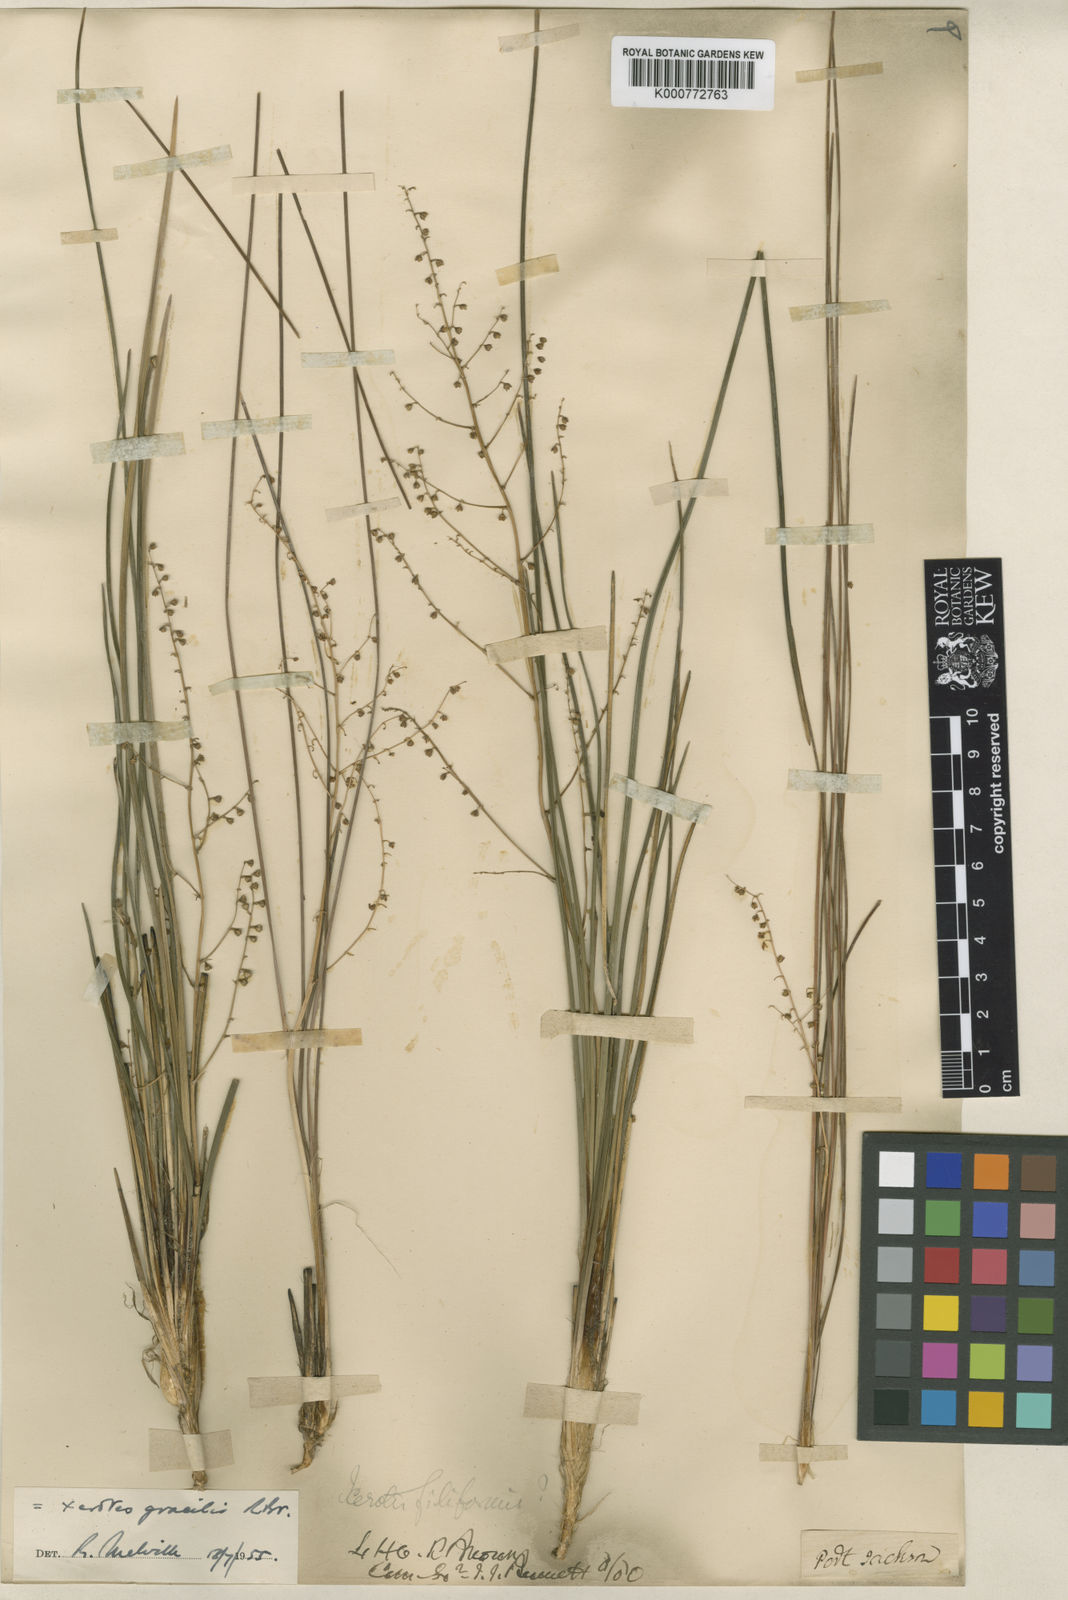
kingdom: Plantae
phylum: Tracheophyta
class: Liliopsida
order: Asparagales
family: Asparagaceae
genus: Lomandra
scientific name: Lomandra gracilis
